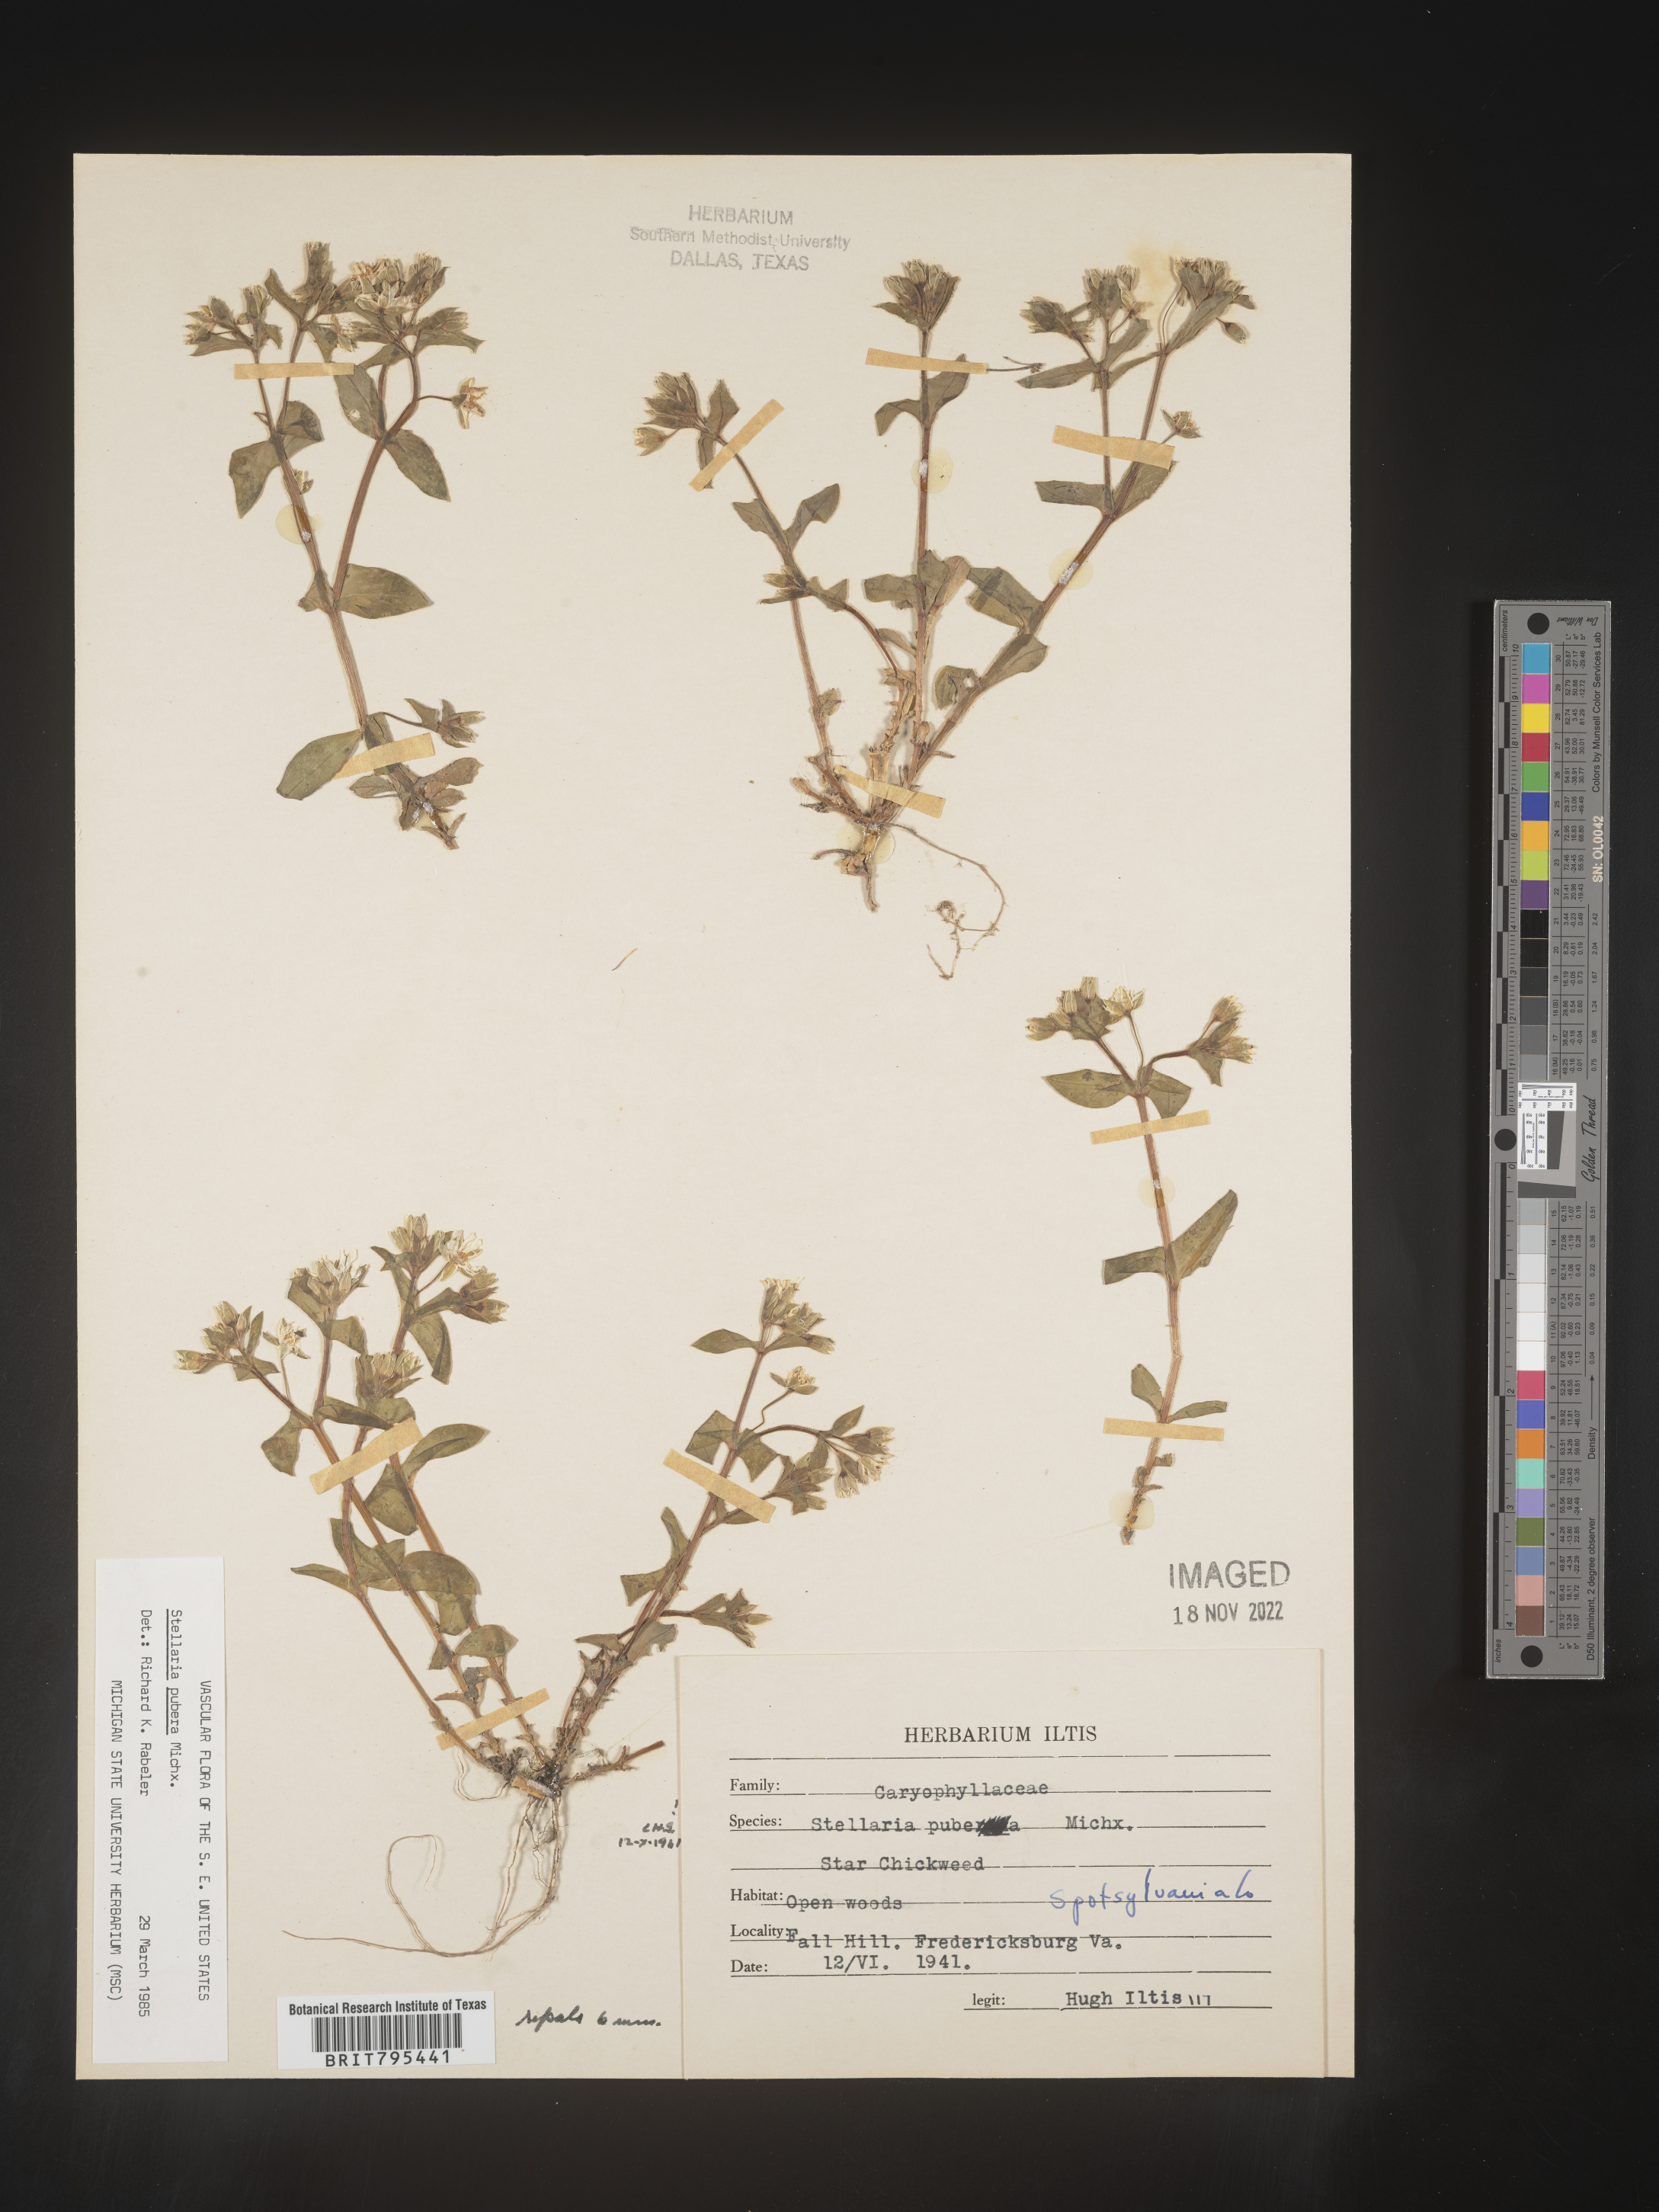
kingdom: Plantae
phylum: Tracheophyta
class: Magnoliopsida
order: Caryophyllales
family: Caryophyllaceae
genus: Stellaria
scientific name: Stellaria pubera
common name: Star chickweed
